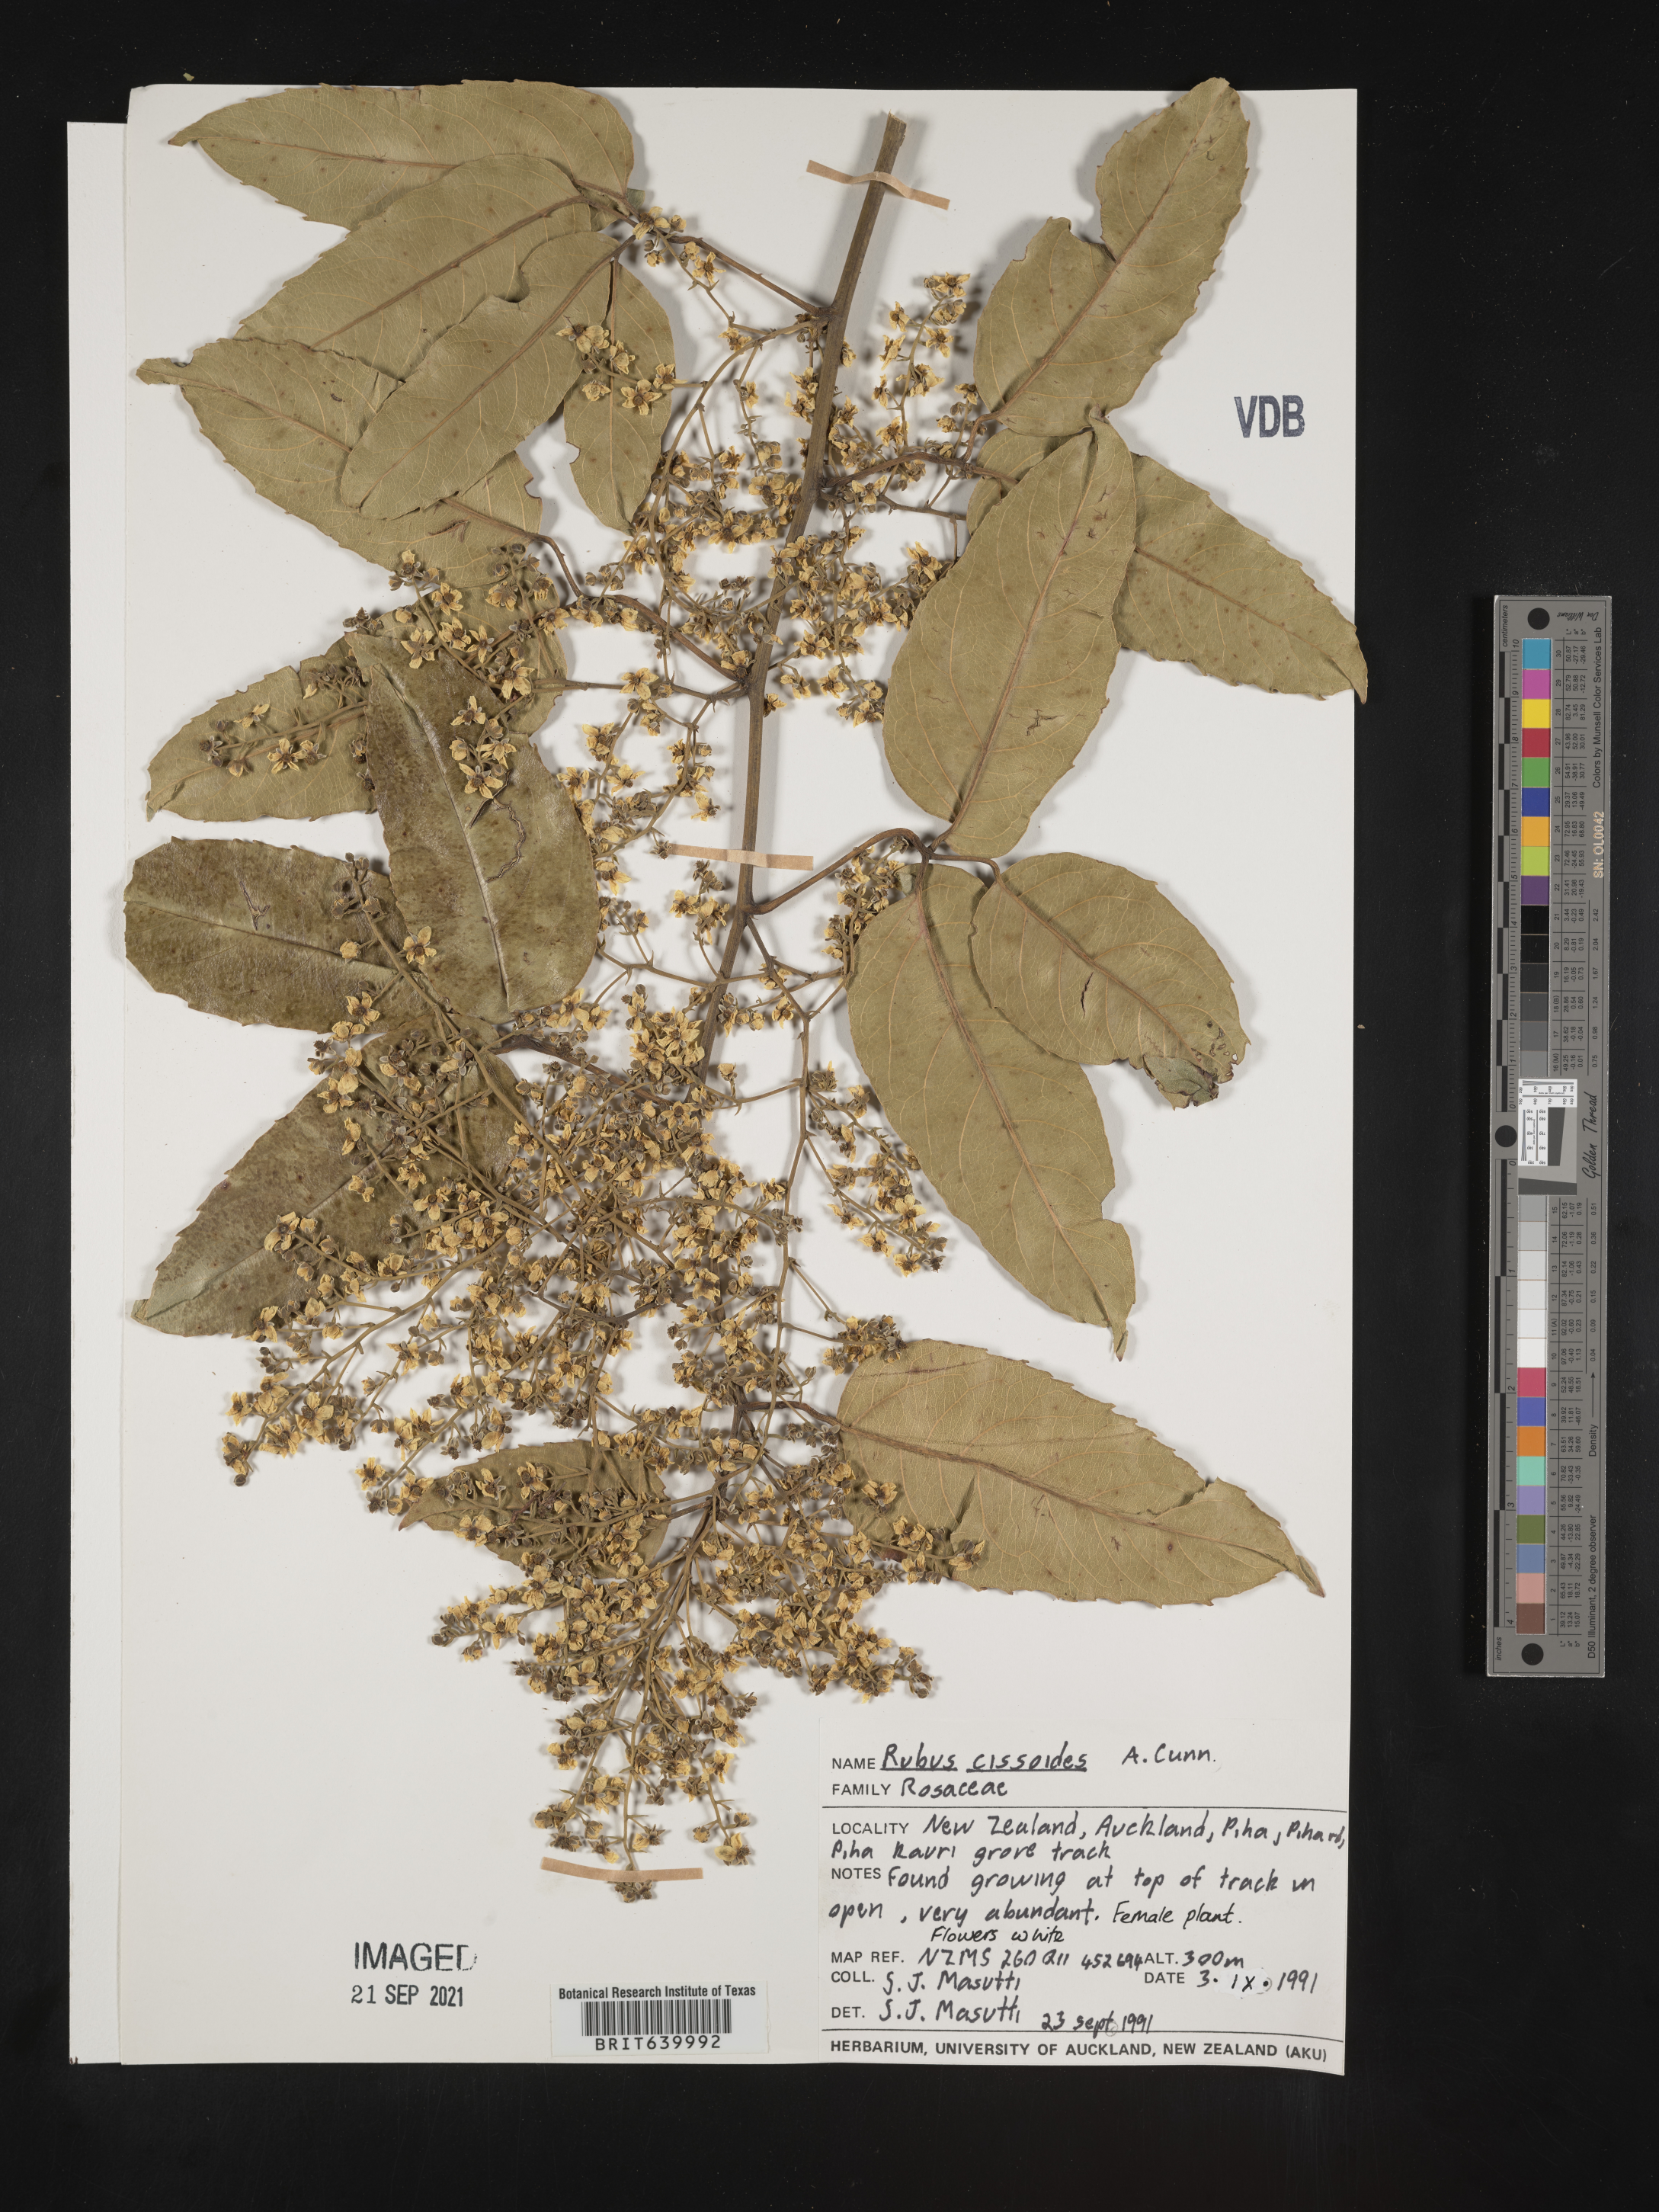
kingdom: Plantae
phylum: Tracheophyta
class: Magnoliopsida
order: Rosales
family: Rosaceae
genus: Rubus
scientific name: Rubus
